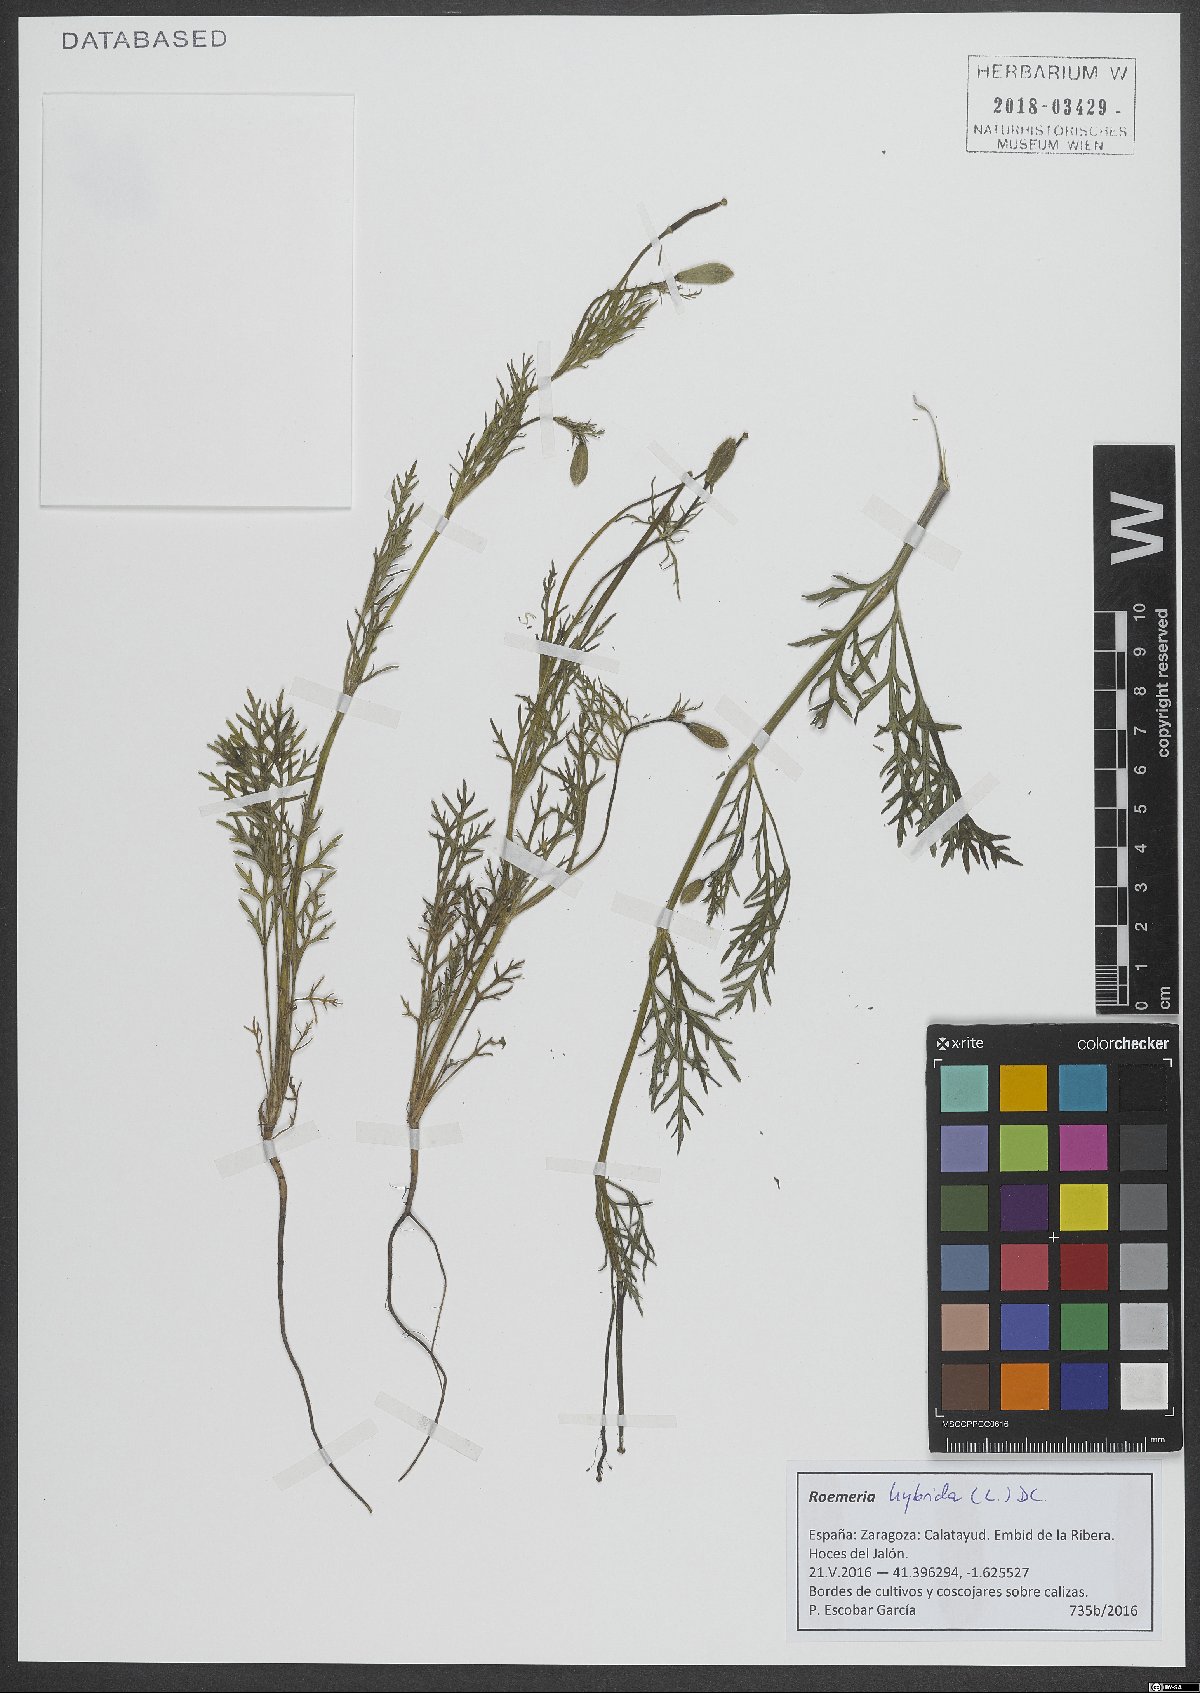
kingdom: Plantae
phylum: Tracheophyta
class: Magnoliopsida
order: Ranunculales
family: Papaveraceae
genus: Roemeria
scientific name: Roemeria hybrida
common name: Violet horned-poppy
